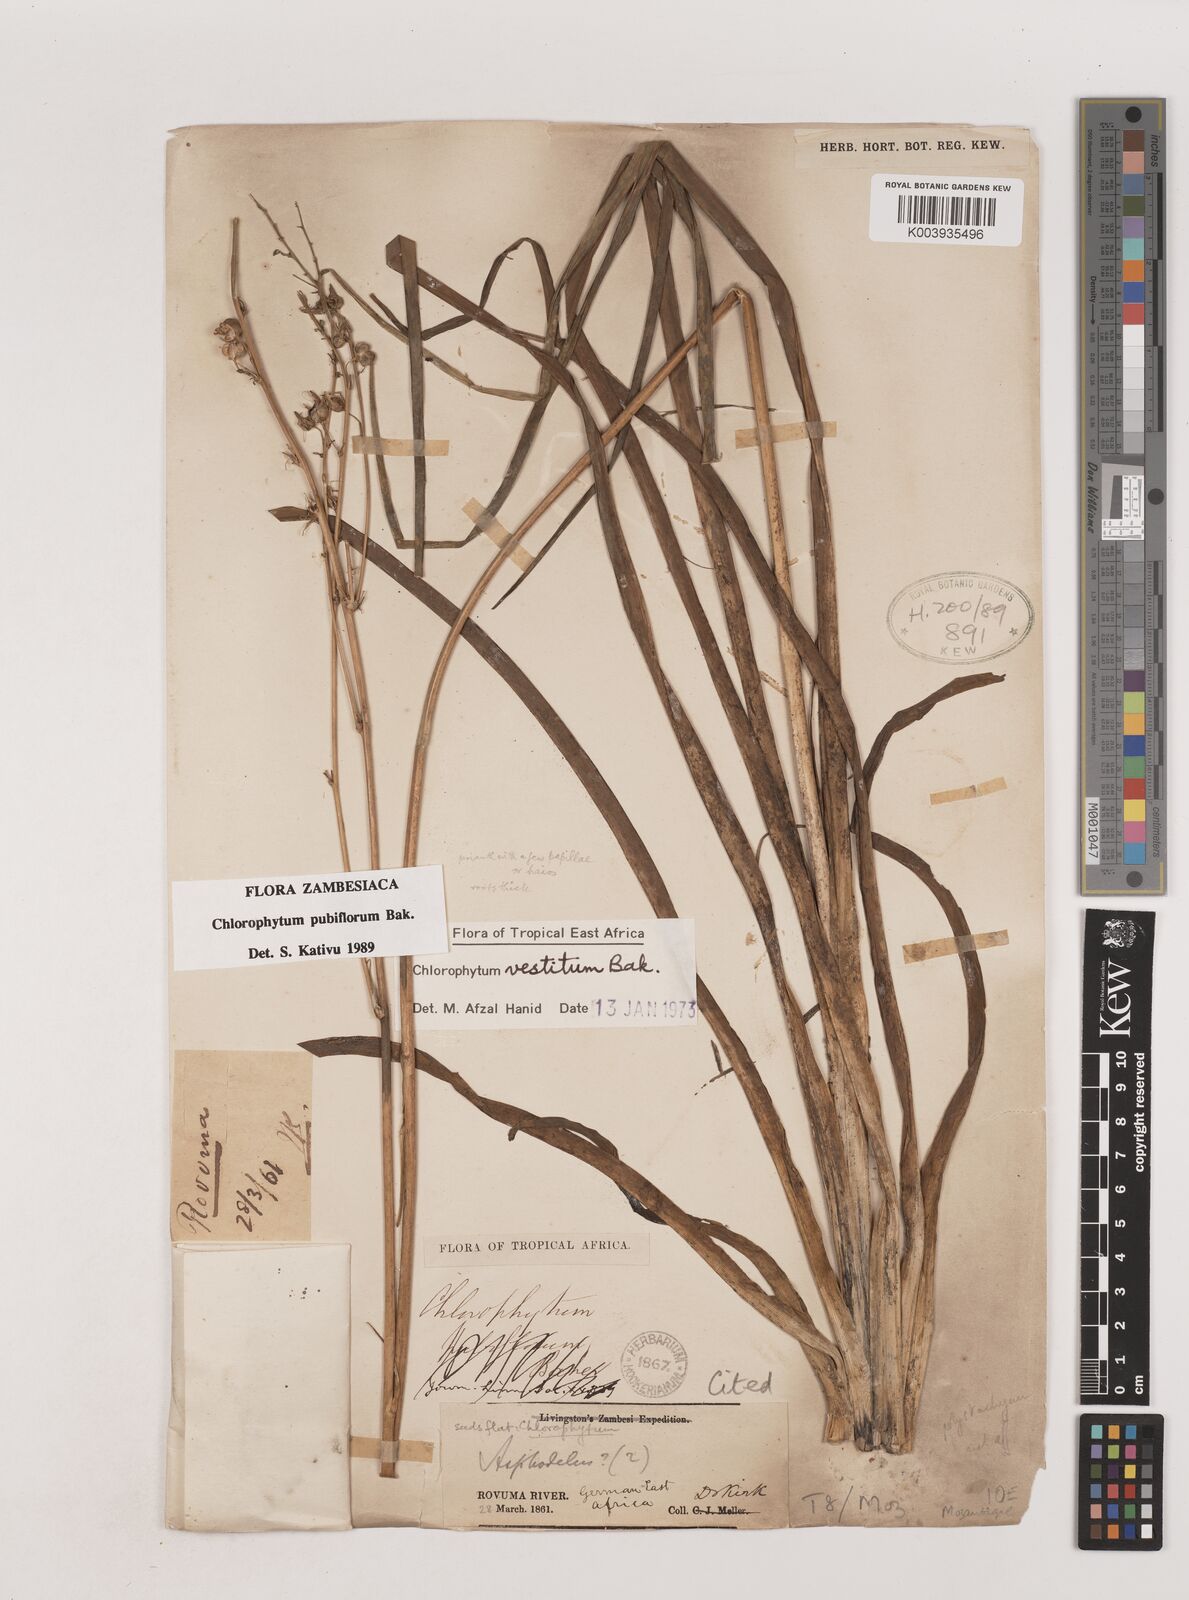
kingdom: Plantae
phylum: Tracheophyta
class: Liliopsida
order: Asparagales
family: Asparagaceae
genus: Chlorophytum
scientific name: Chlorophytum pubiflorum
